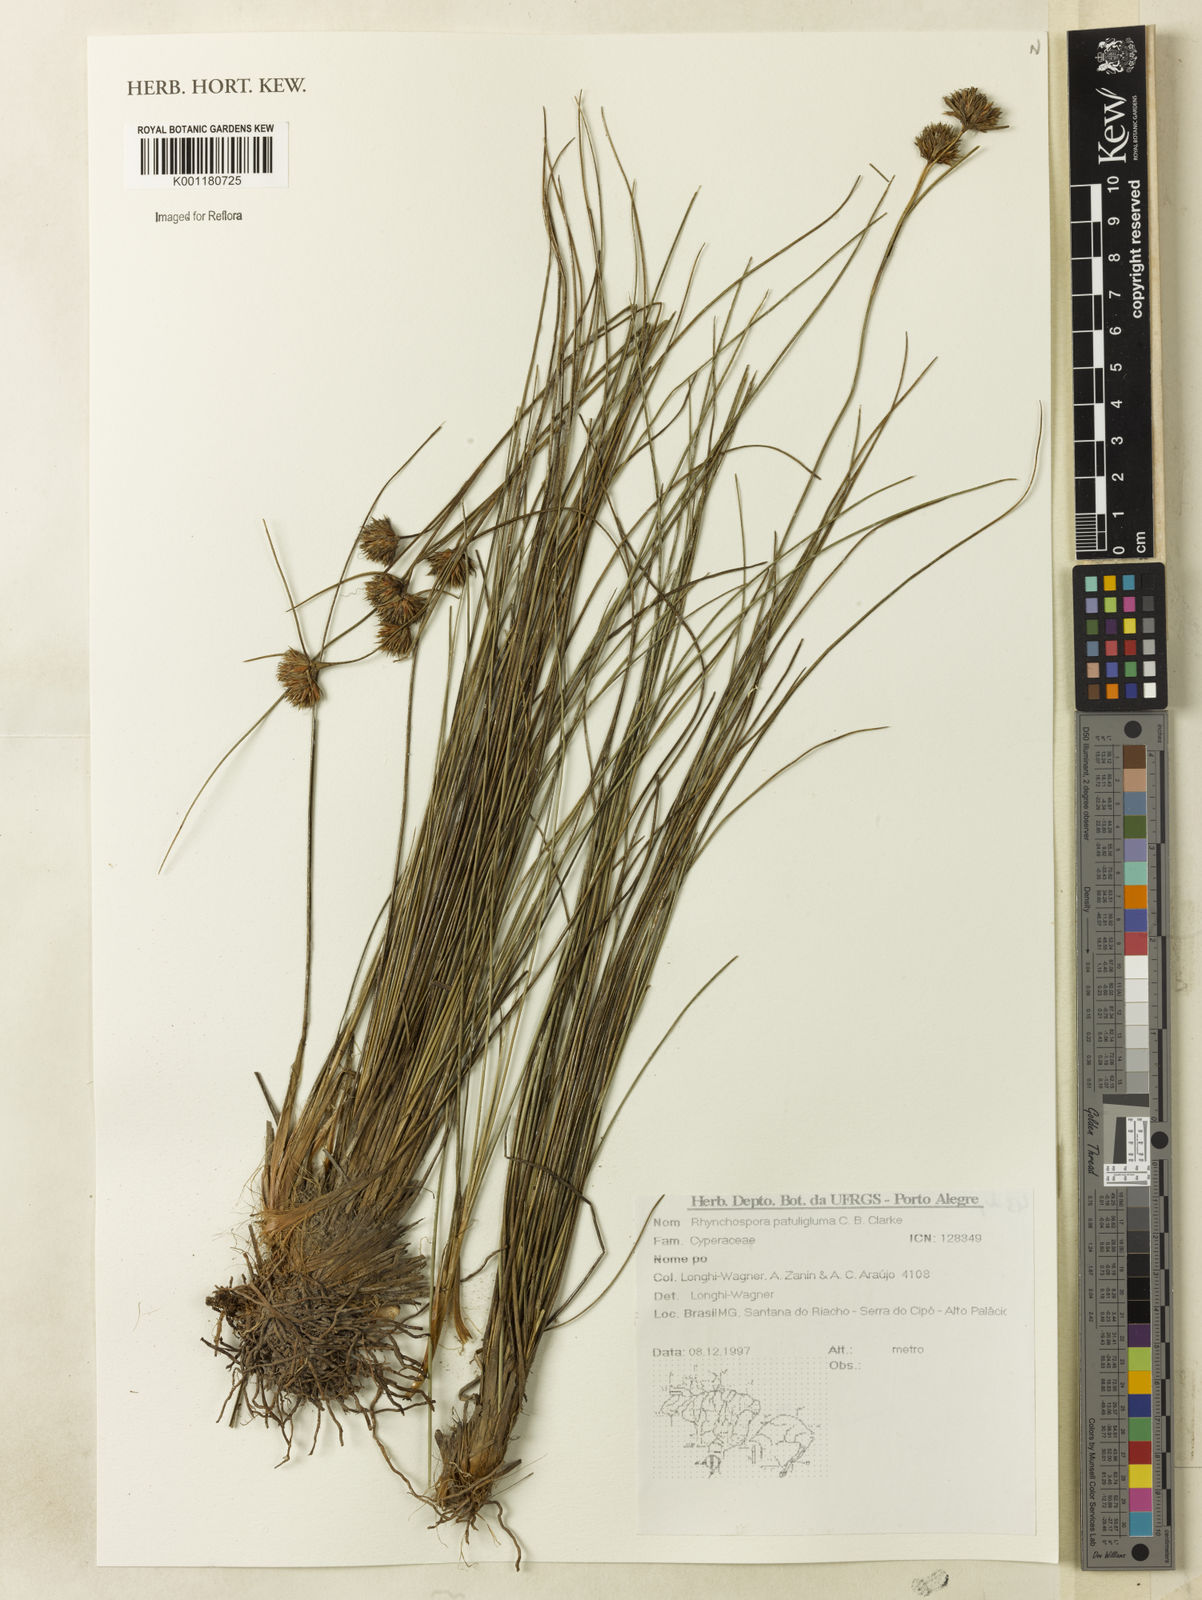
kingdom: Plantae
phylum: Tracheophyta
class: Liliopsida
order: Poales
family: Cyperaceae
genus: Rhynchospora
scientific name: Rhynchospora patuligluma
